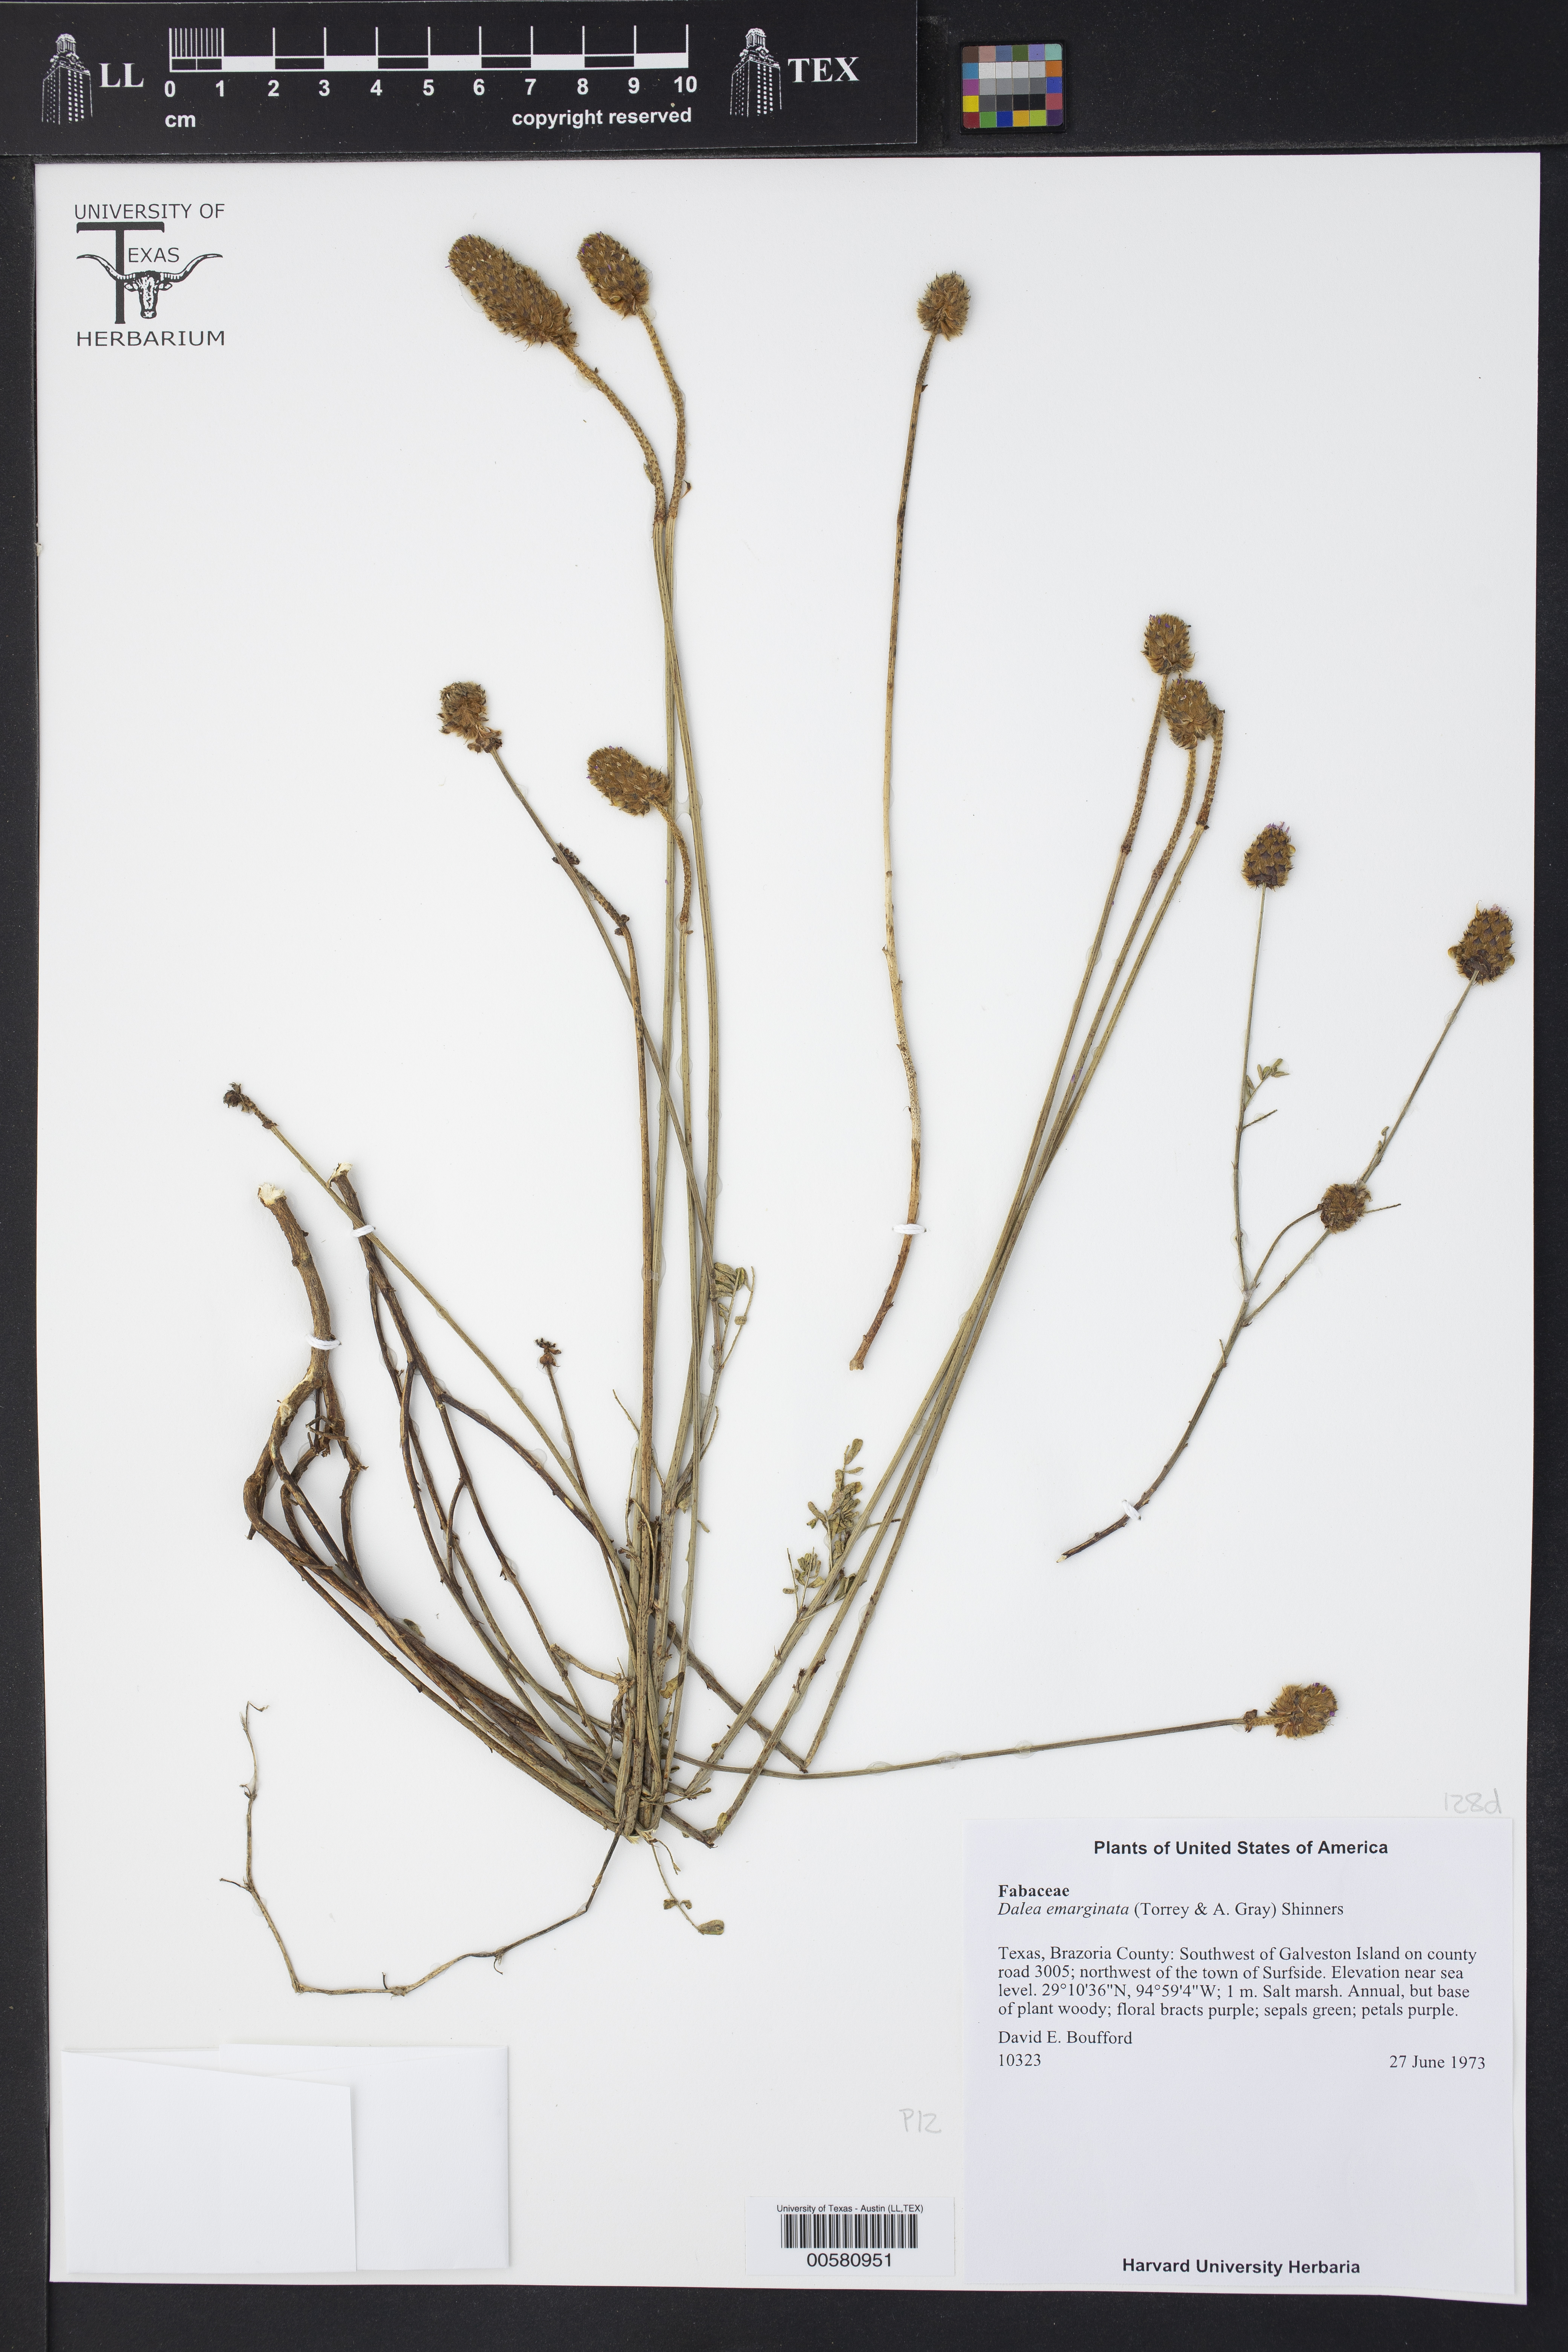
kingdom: Plantae
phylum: Tracheophyta
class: Magnoliopsida
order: Fabales
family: Fabaceae
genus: Dalea
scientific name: Dalea emarginata
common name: Wedgeleaf prairie clover
